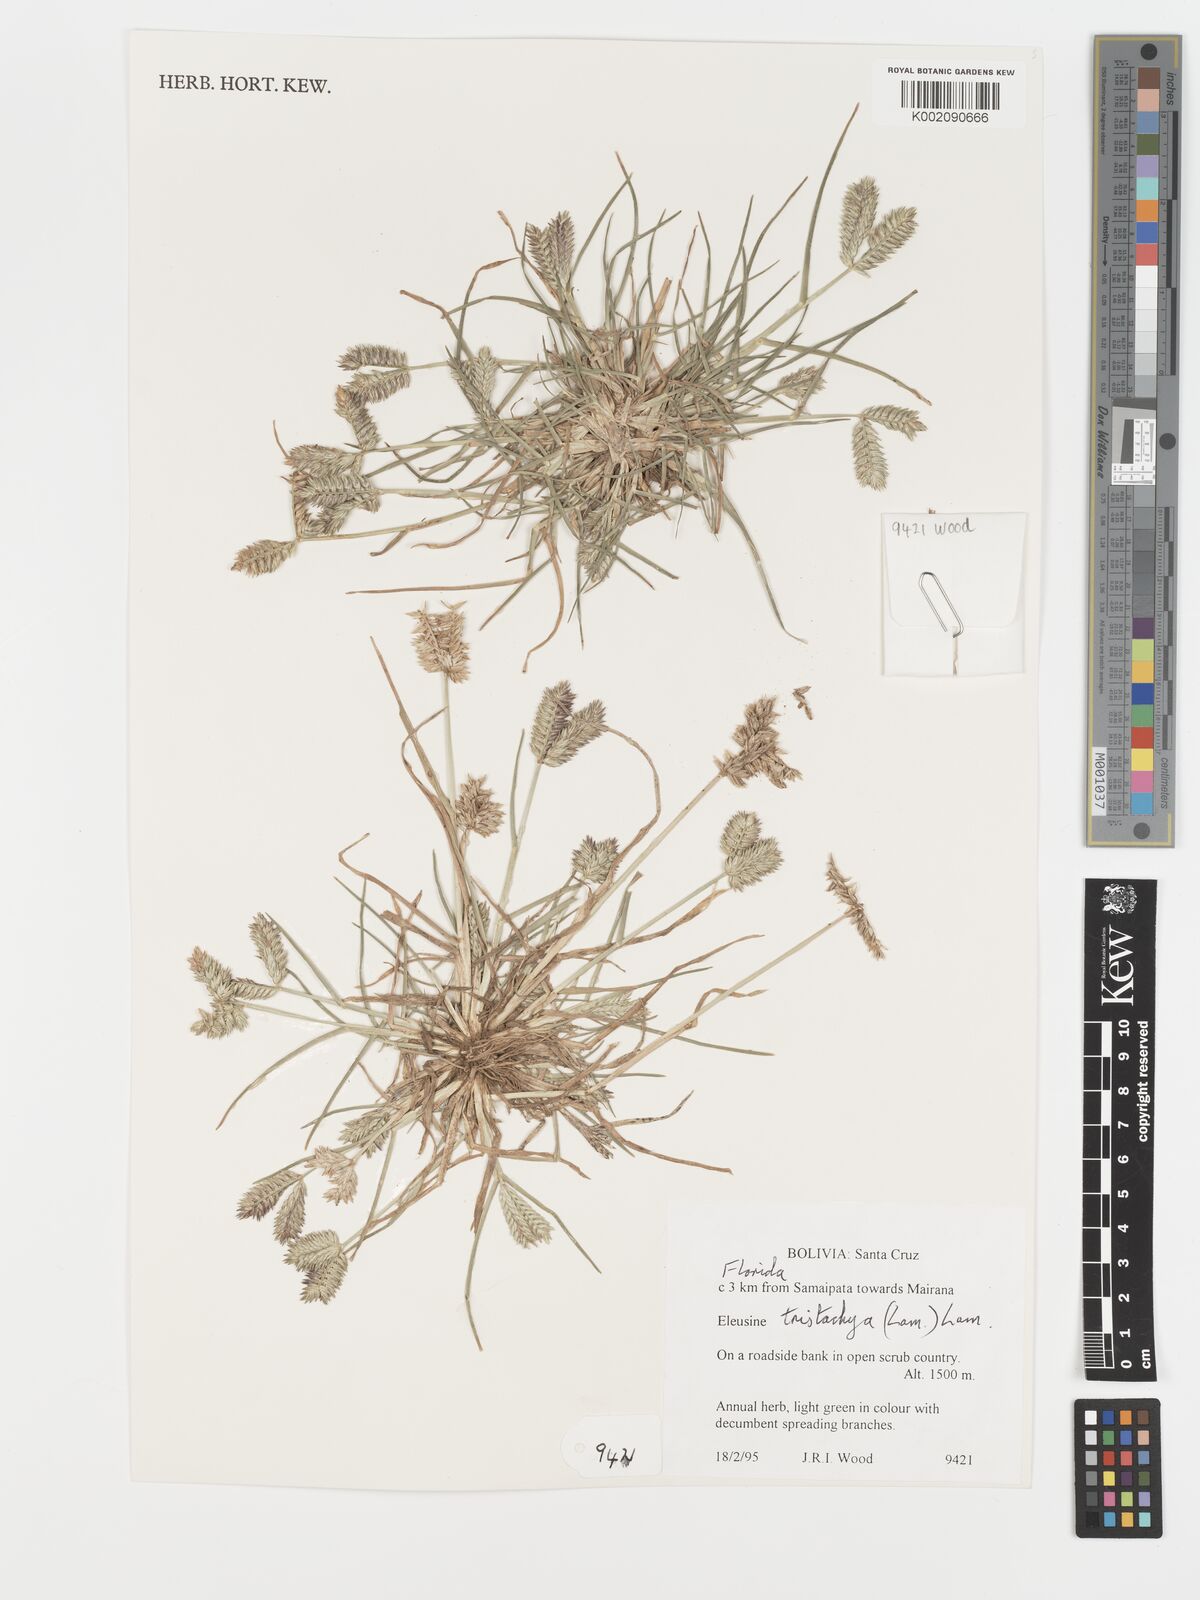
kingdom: Plantae
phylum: Tracheophyta
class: Liliopsida
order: Poales
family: Poaceae
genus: Eleusine
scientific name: Eleusine tristachya
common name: American yard-grass
